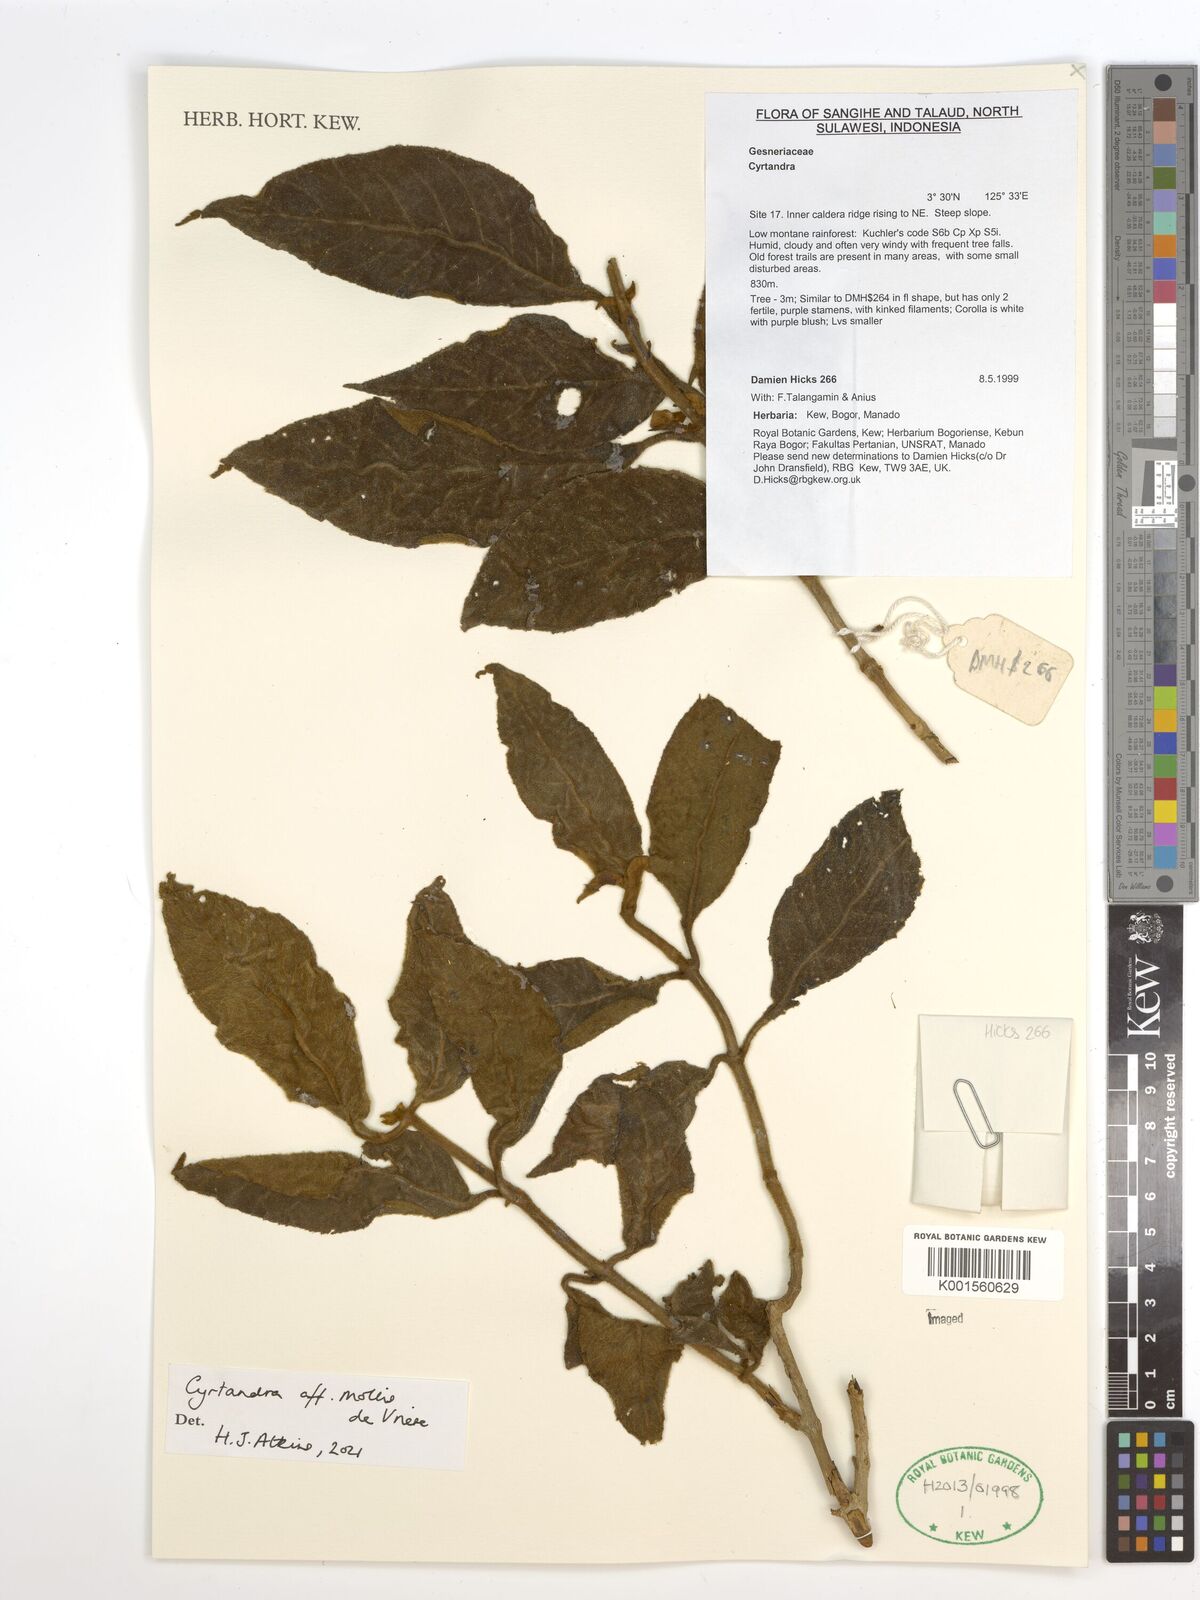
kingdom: Plantae
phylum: Tracheophyta
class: Magnoliopsida
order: Lamiales
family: Gesneriaceae
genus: Cyrtandra
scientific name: Cyrtandra mollis
